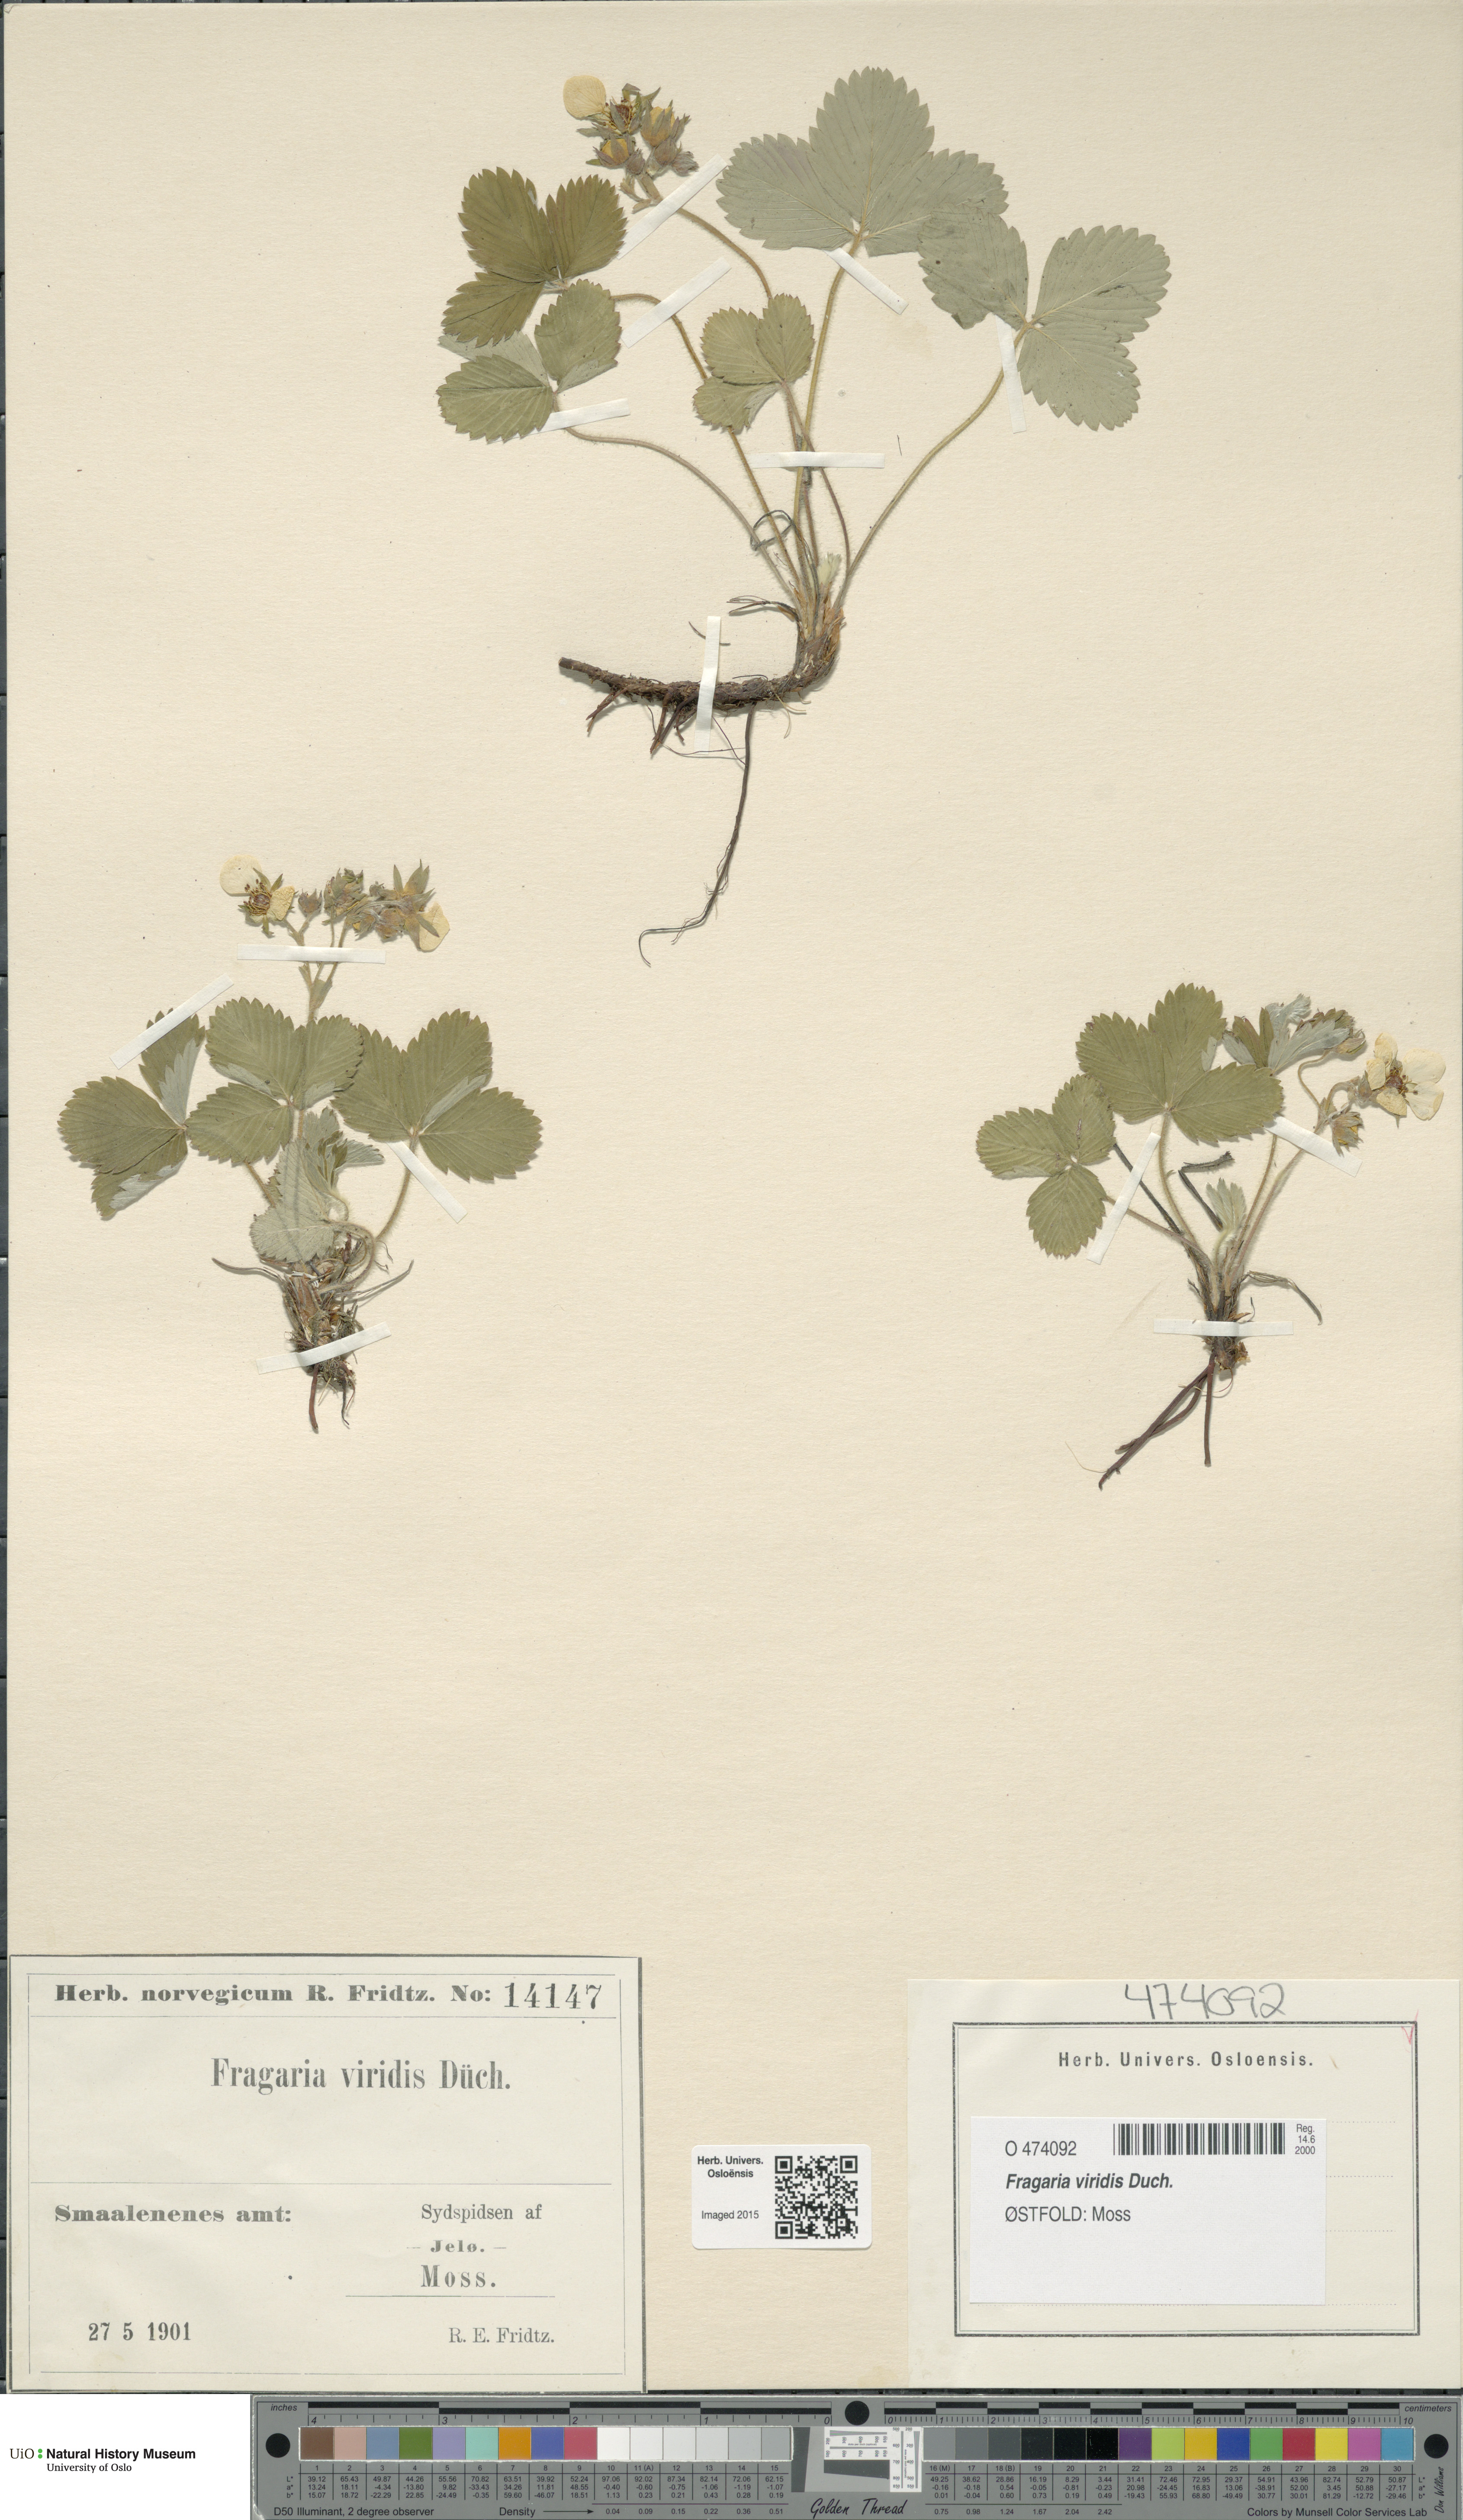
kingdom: Plantae
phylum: Tracheophyta
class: Magnoliopsida
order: Rosales
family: Rosaceae
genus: Fragaria
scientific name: Fragaria viridis
